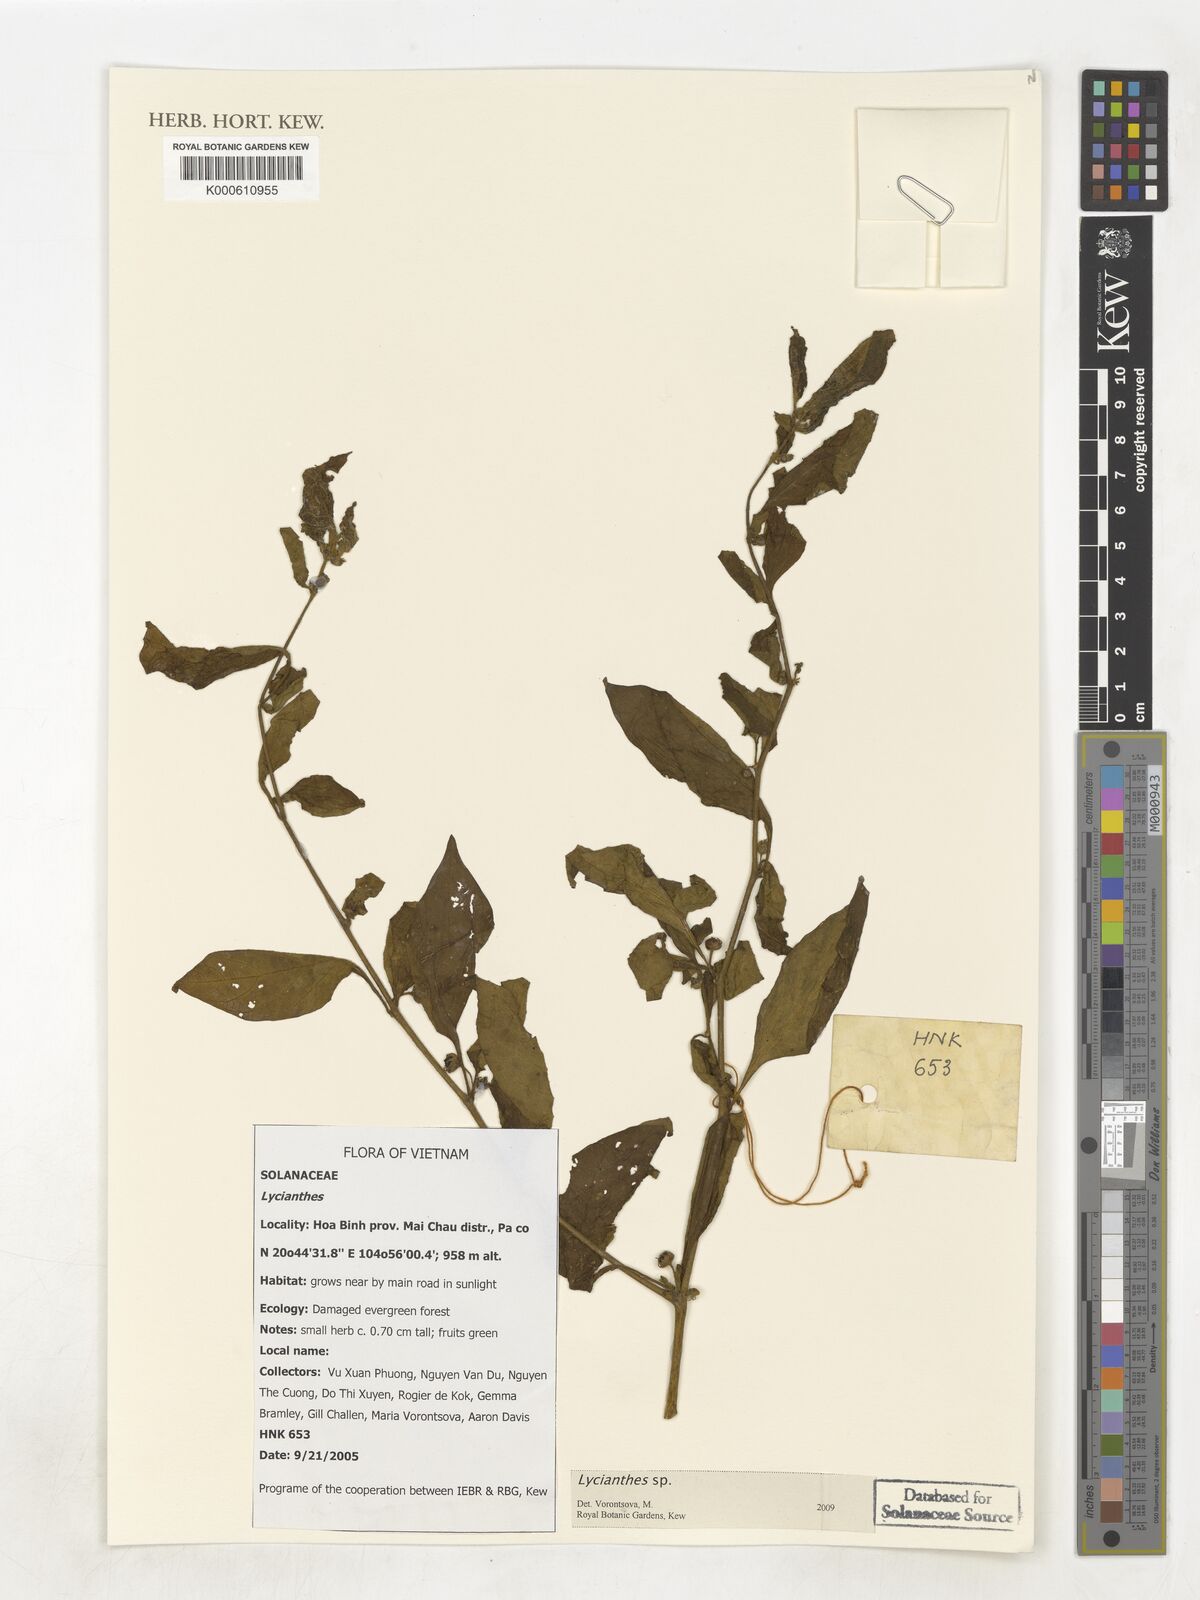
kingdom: Plantae
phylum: Tracheophyta
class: Magnoliopsida
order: Solanales
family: Solanaceae
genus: Lycianthes
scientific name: Lycianthes
